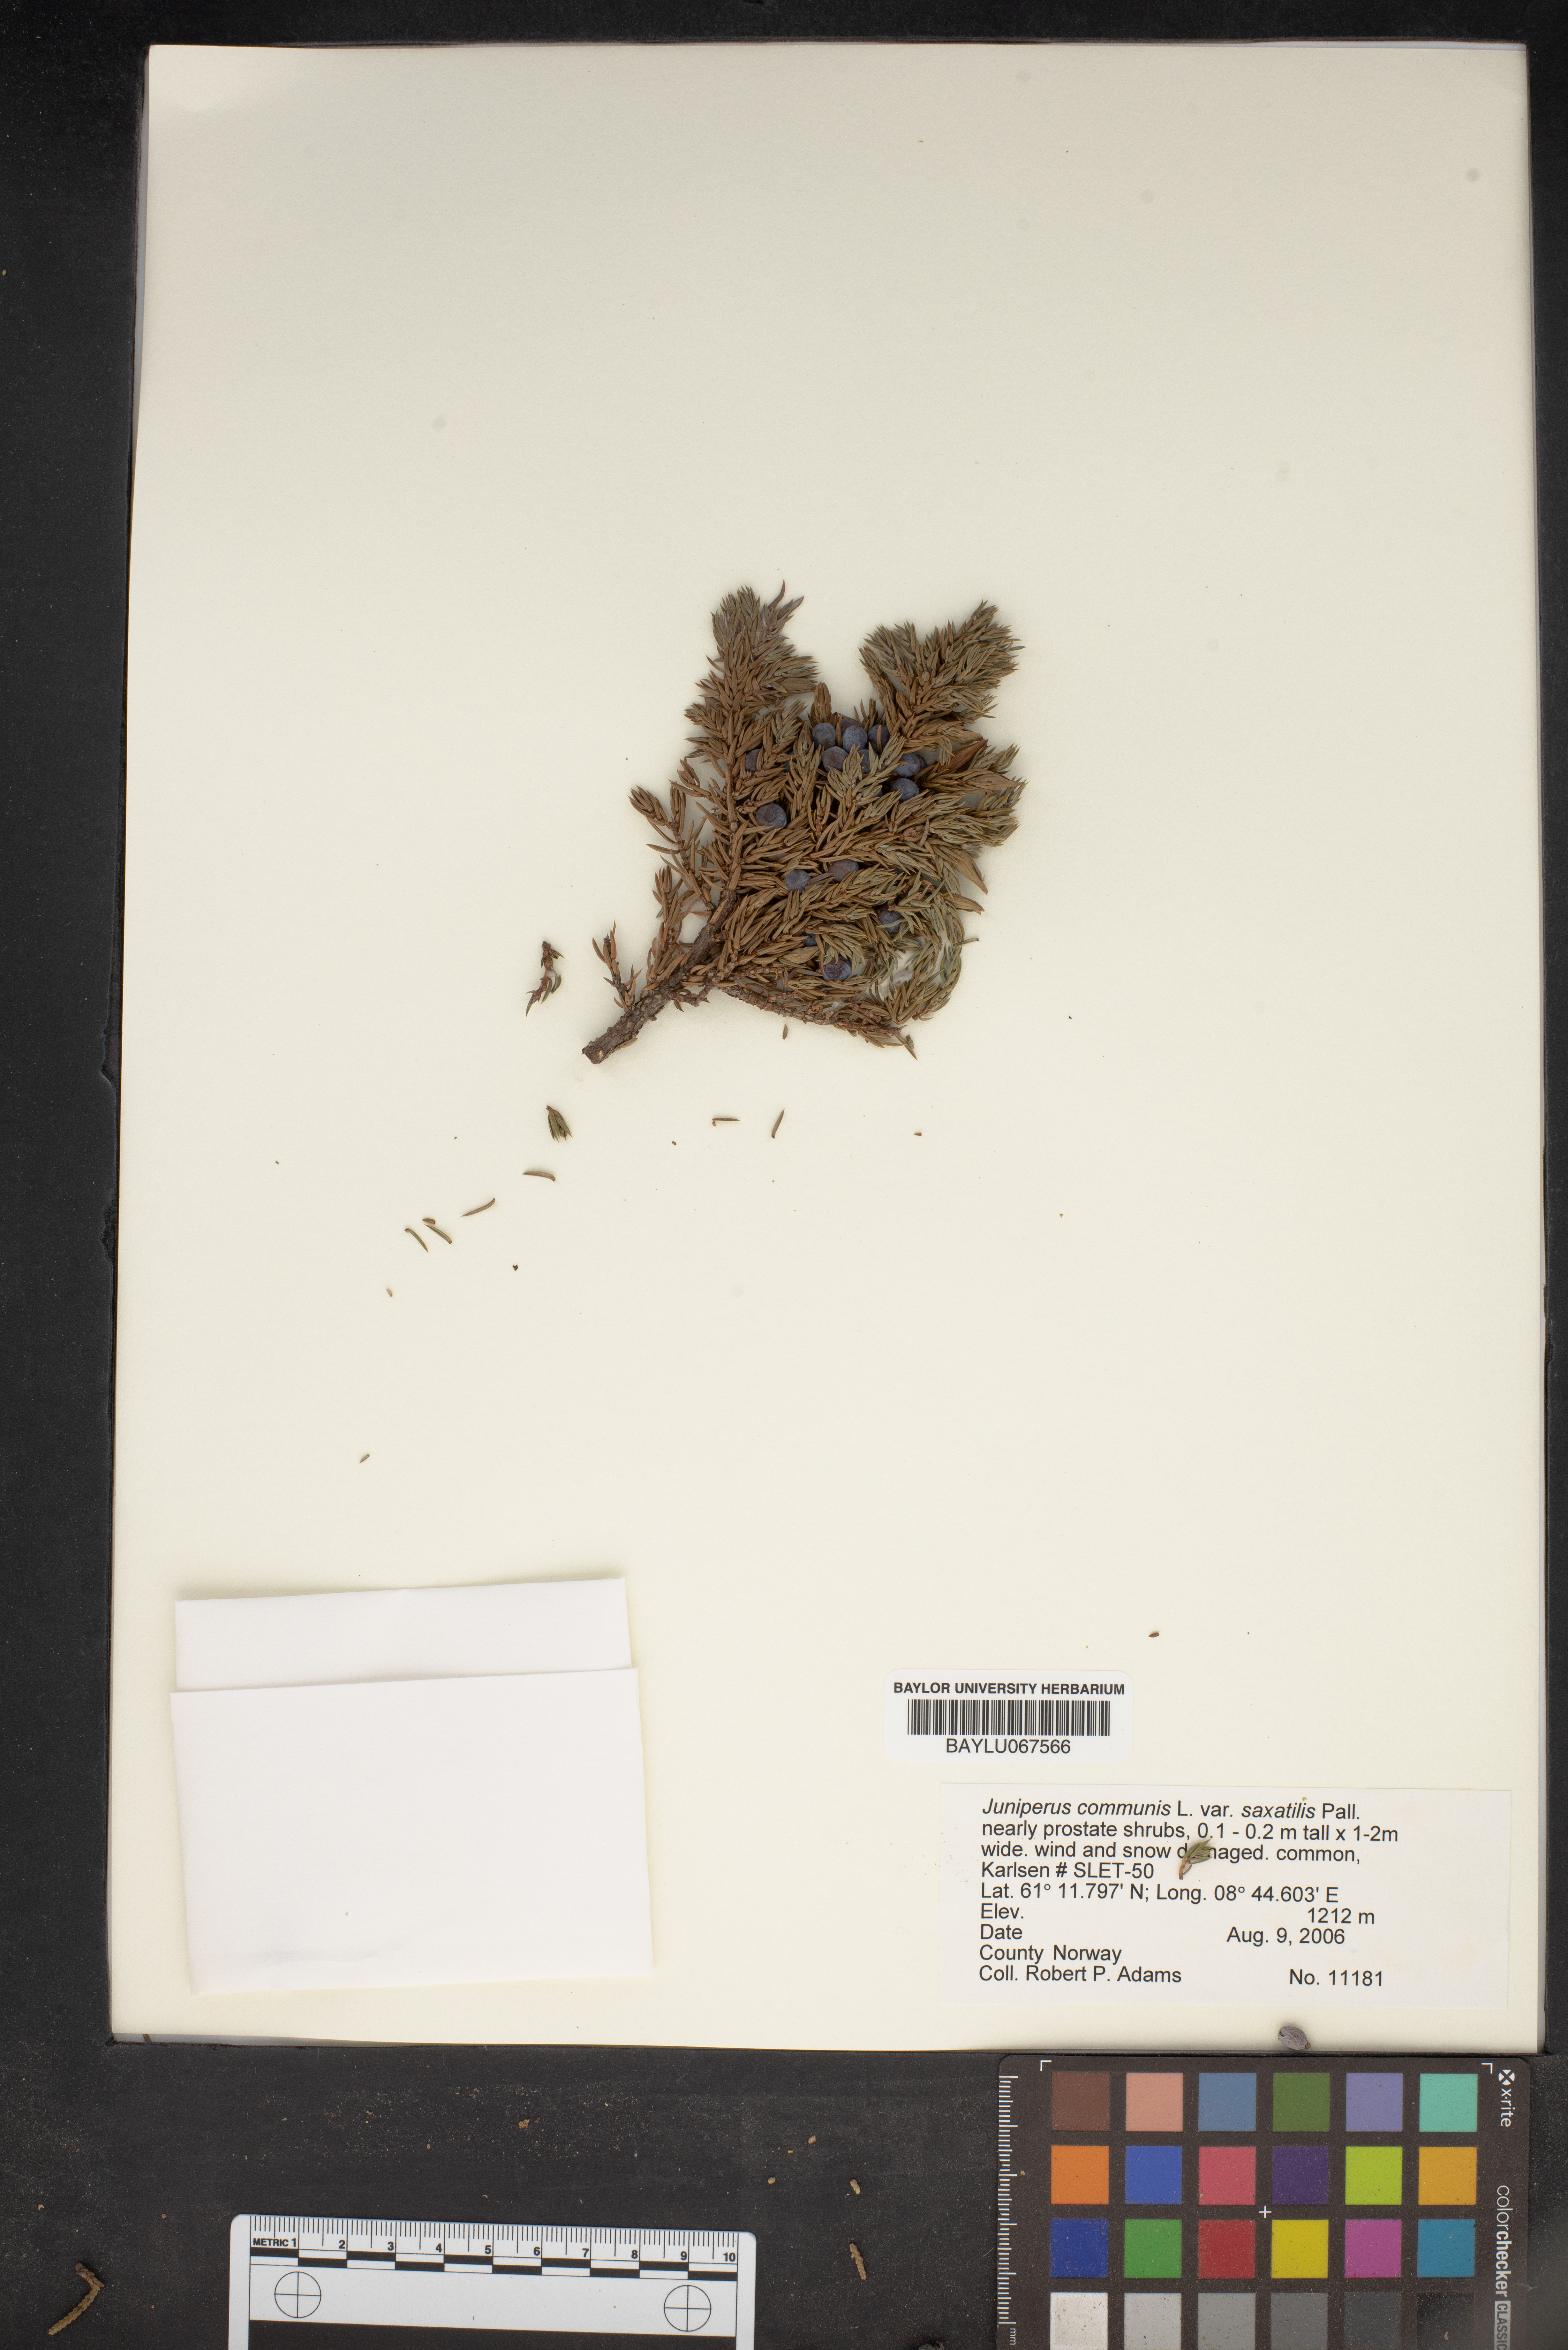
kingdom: Plantae
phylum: Tracheophyta
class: Pinopsida
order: Pinales
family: Cupressaceae
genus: Juniperus
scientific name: Juniperus communis
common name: Common juniper
